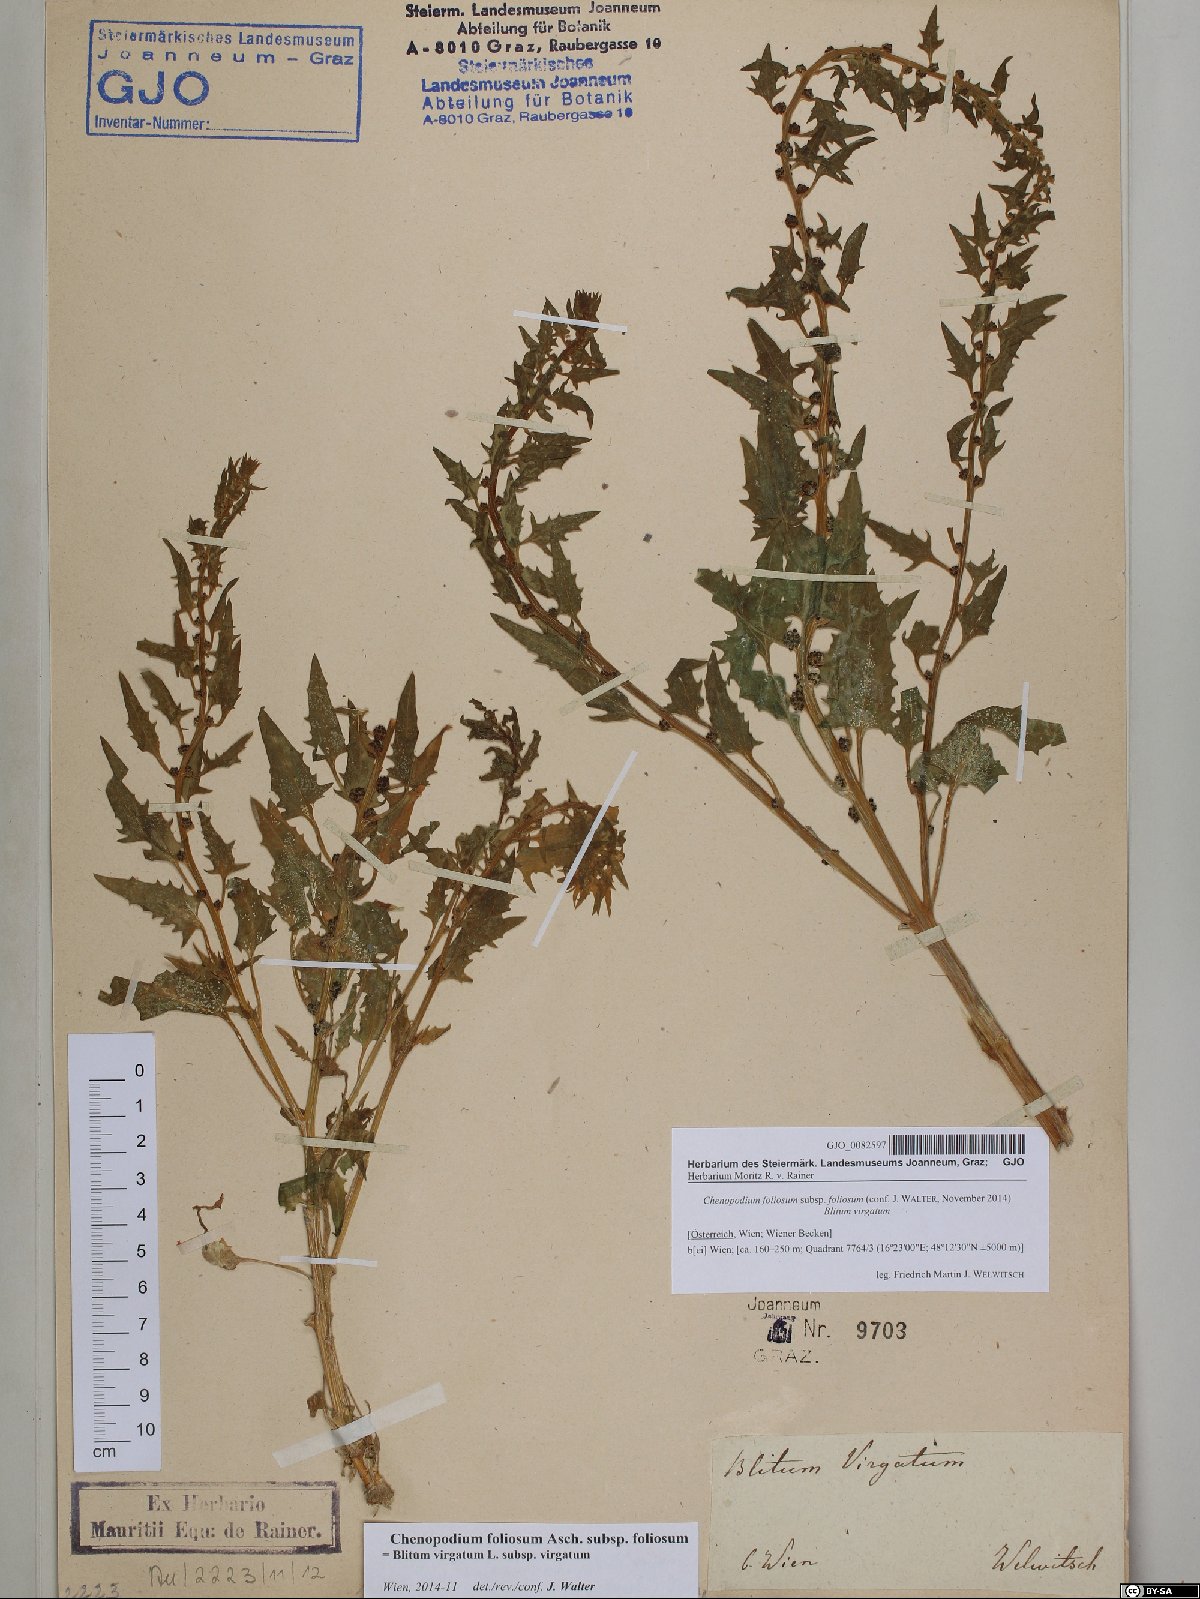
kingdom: Plantae
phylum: Tracheophyta
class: Magnoliopsida
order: Caryophyllales
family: Amaranthaceae
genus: Blitum
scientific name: Blitum virgatum
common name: Strawberry goosefoot
